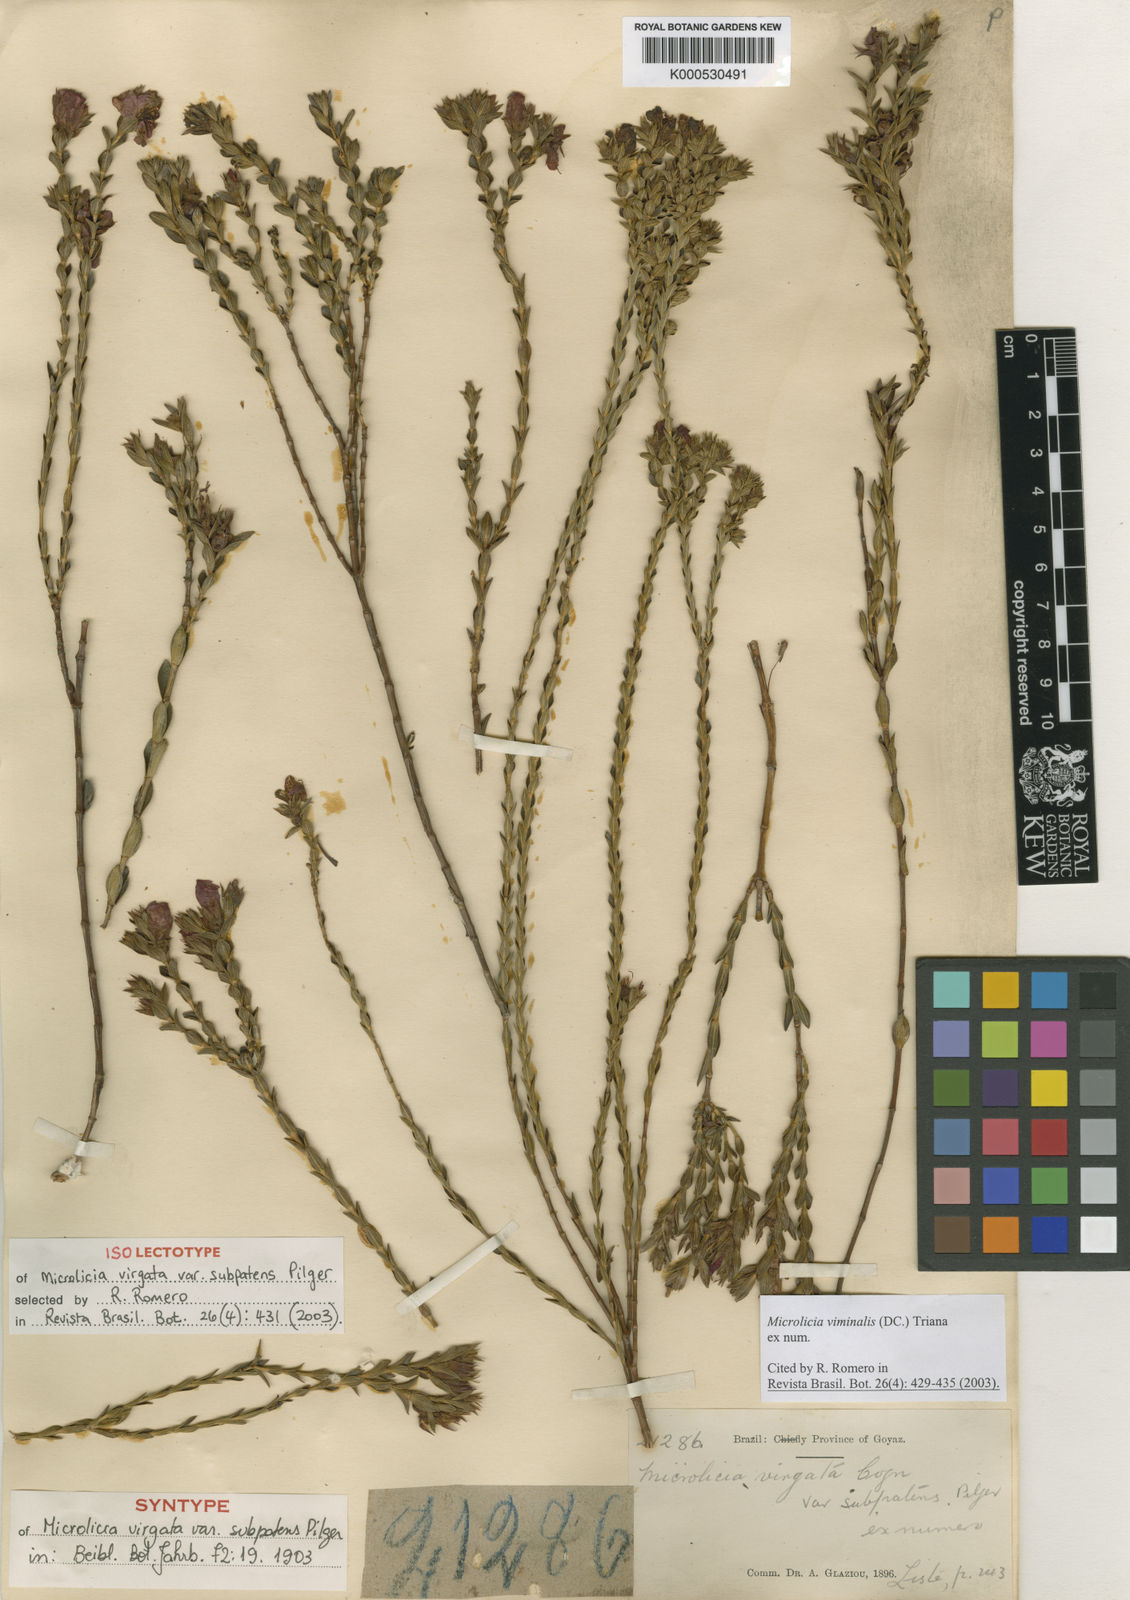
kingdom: Plantae
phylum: Tracheophyta
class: Magnoliopsida
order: Myrtales
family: Melastomataceae
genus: Microlicia
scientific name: Microlicia viminalis
